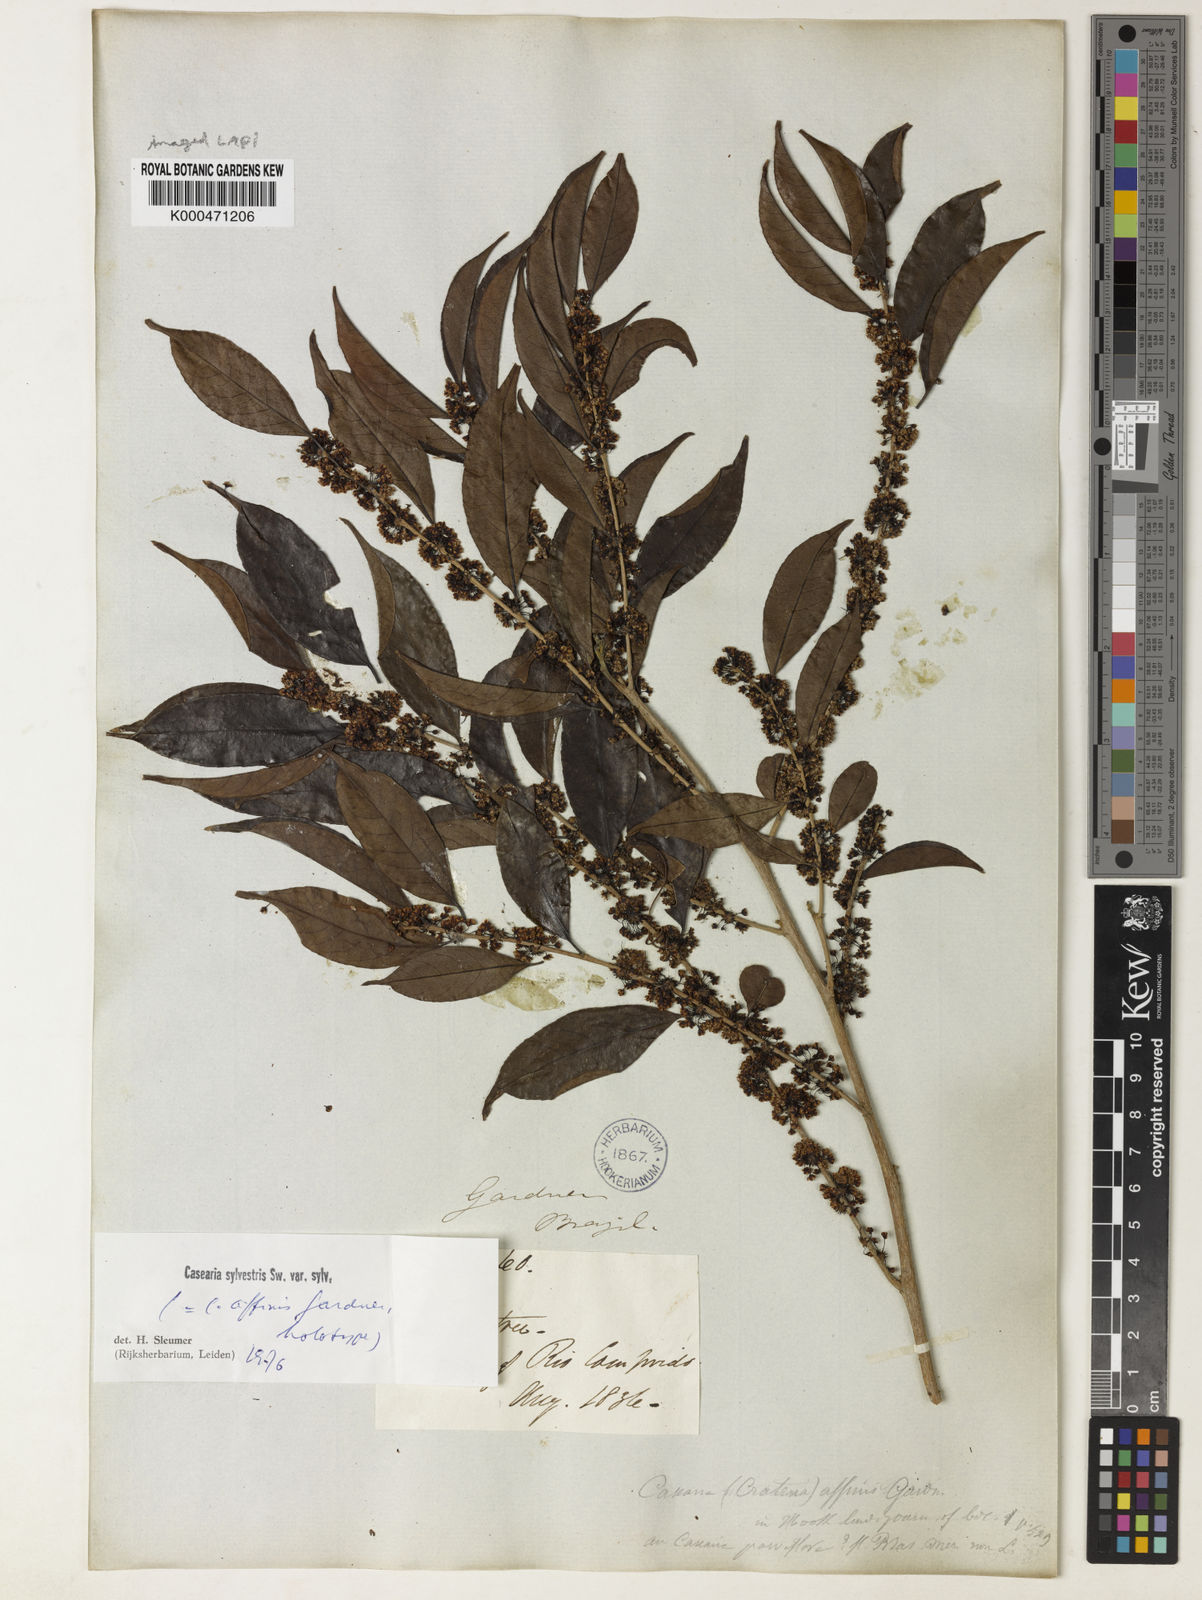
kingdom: Plantae
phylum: Tracheophyta
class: Magnoliopsida
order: Malpighiales
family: Salicaceae
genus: Casearia
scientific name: Casearia sylvestris
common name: Wild sage
